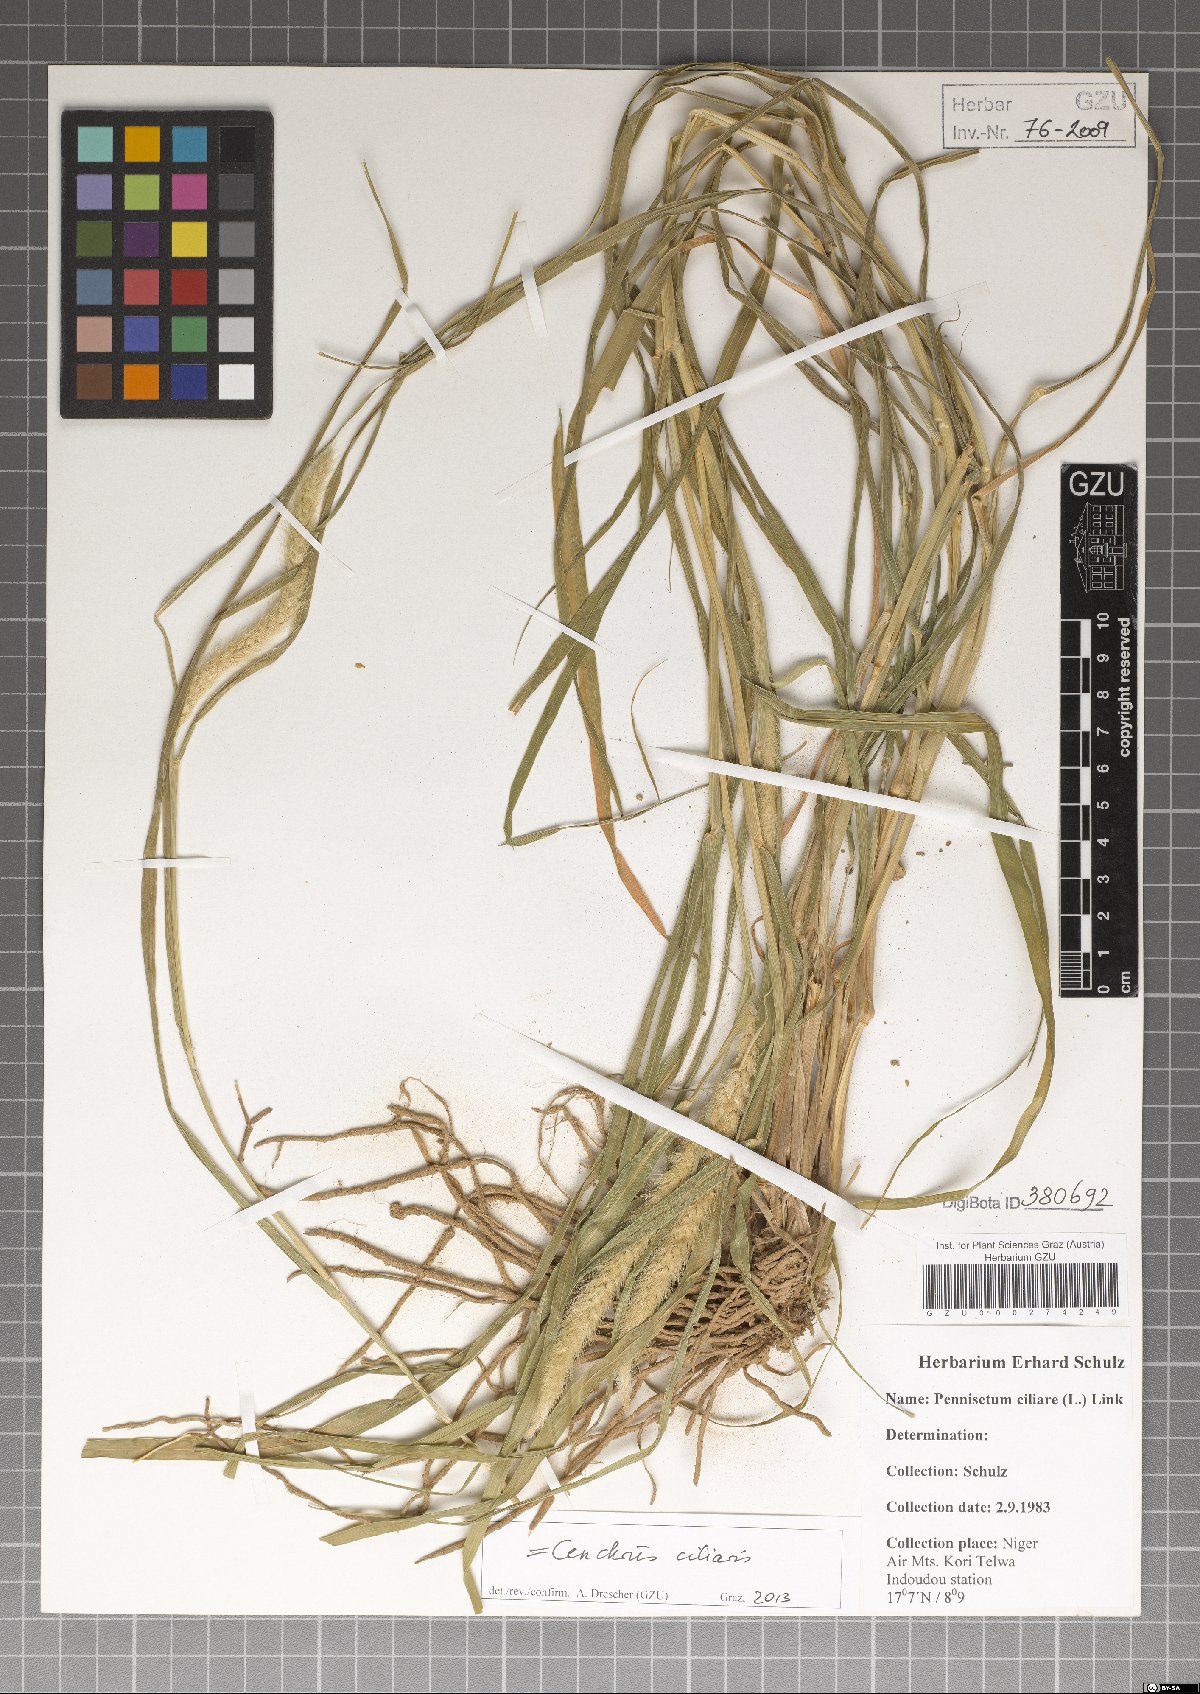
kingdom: Plantae
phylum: Tracheophyta
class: Liliopsida
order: Poales
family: Poaceae
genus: Cenchrus
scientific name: Cenchrus ciliaris
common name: Buffelgrass
